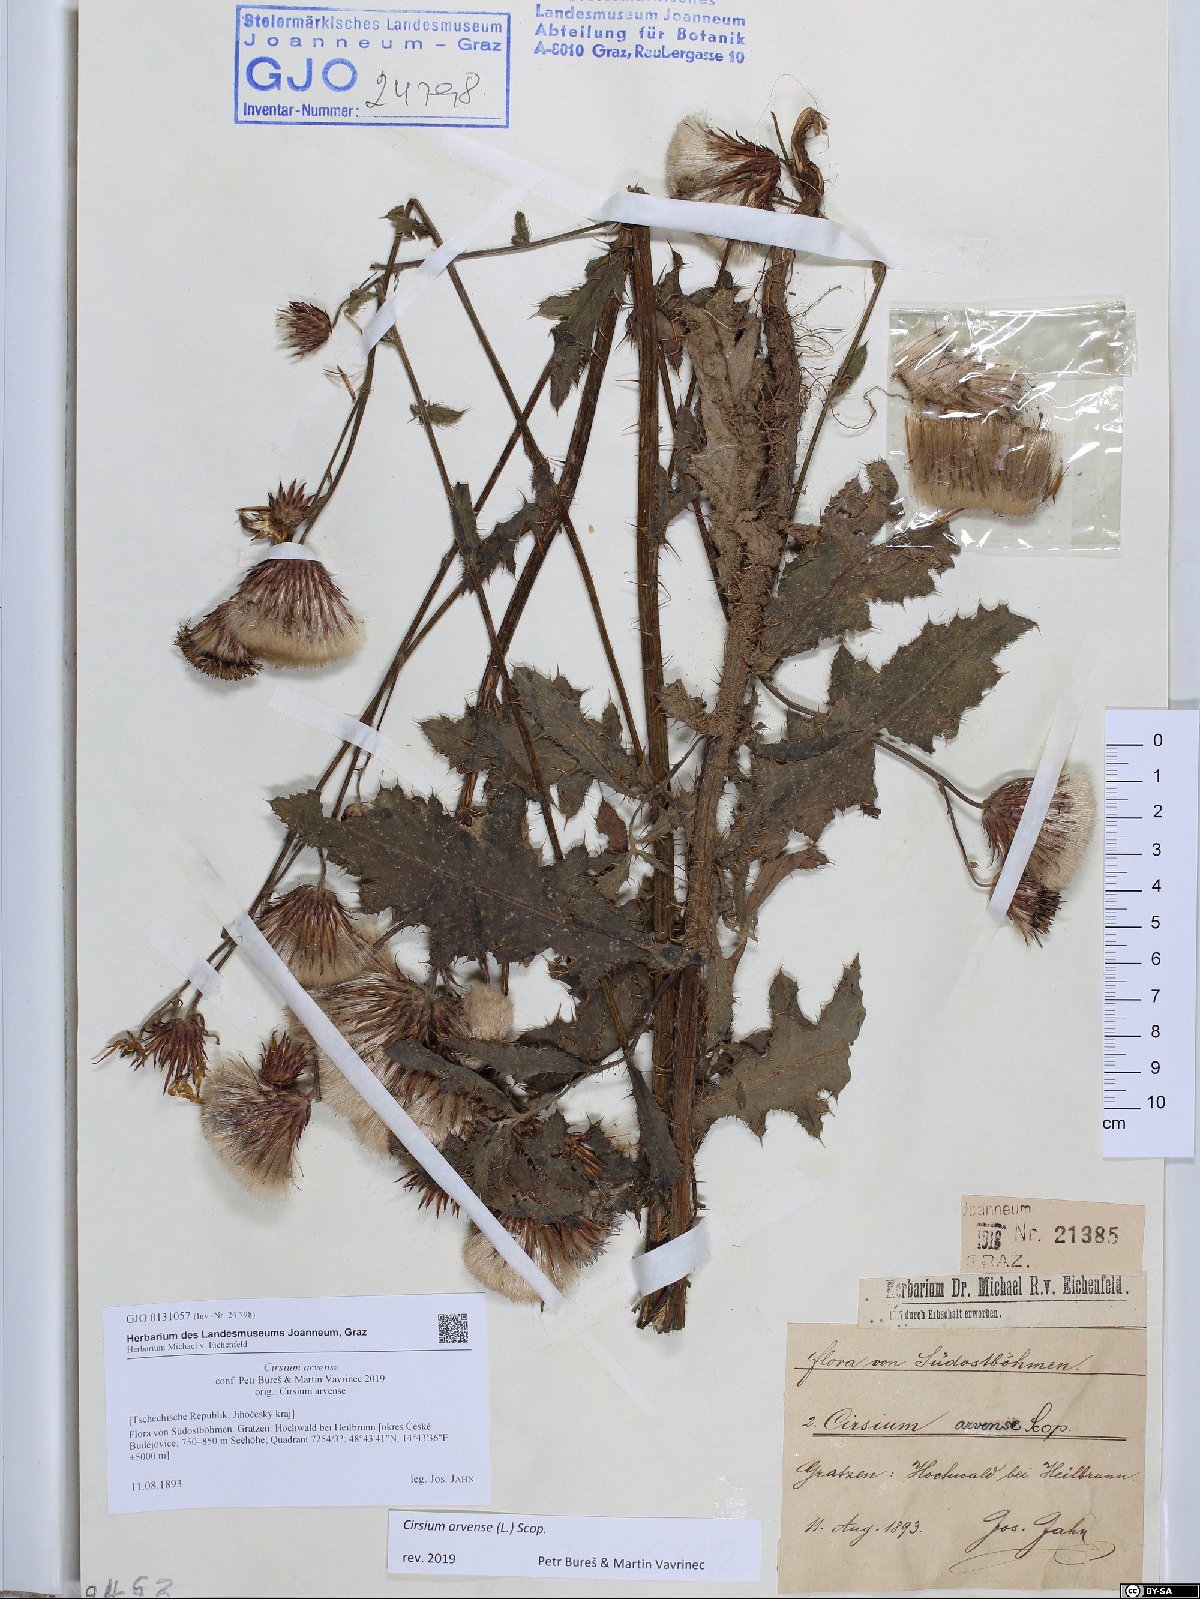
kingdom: Plantae
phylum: Tracheophyta
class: Magnoliopsida
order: Asterales
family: Asteraceae
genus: Cirsium
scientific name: Cirsium arvense
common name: Creeping thistle
